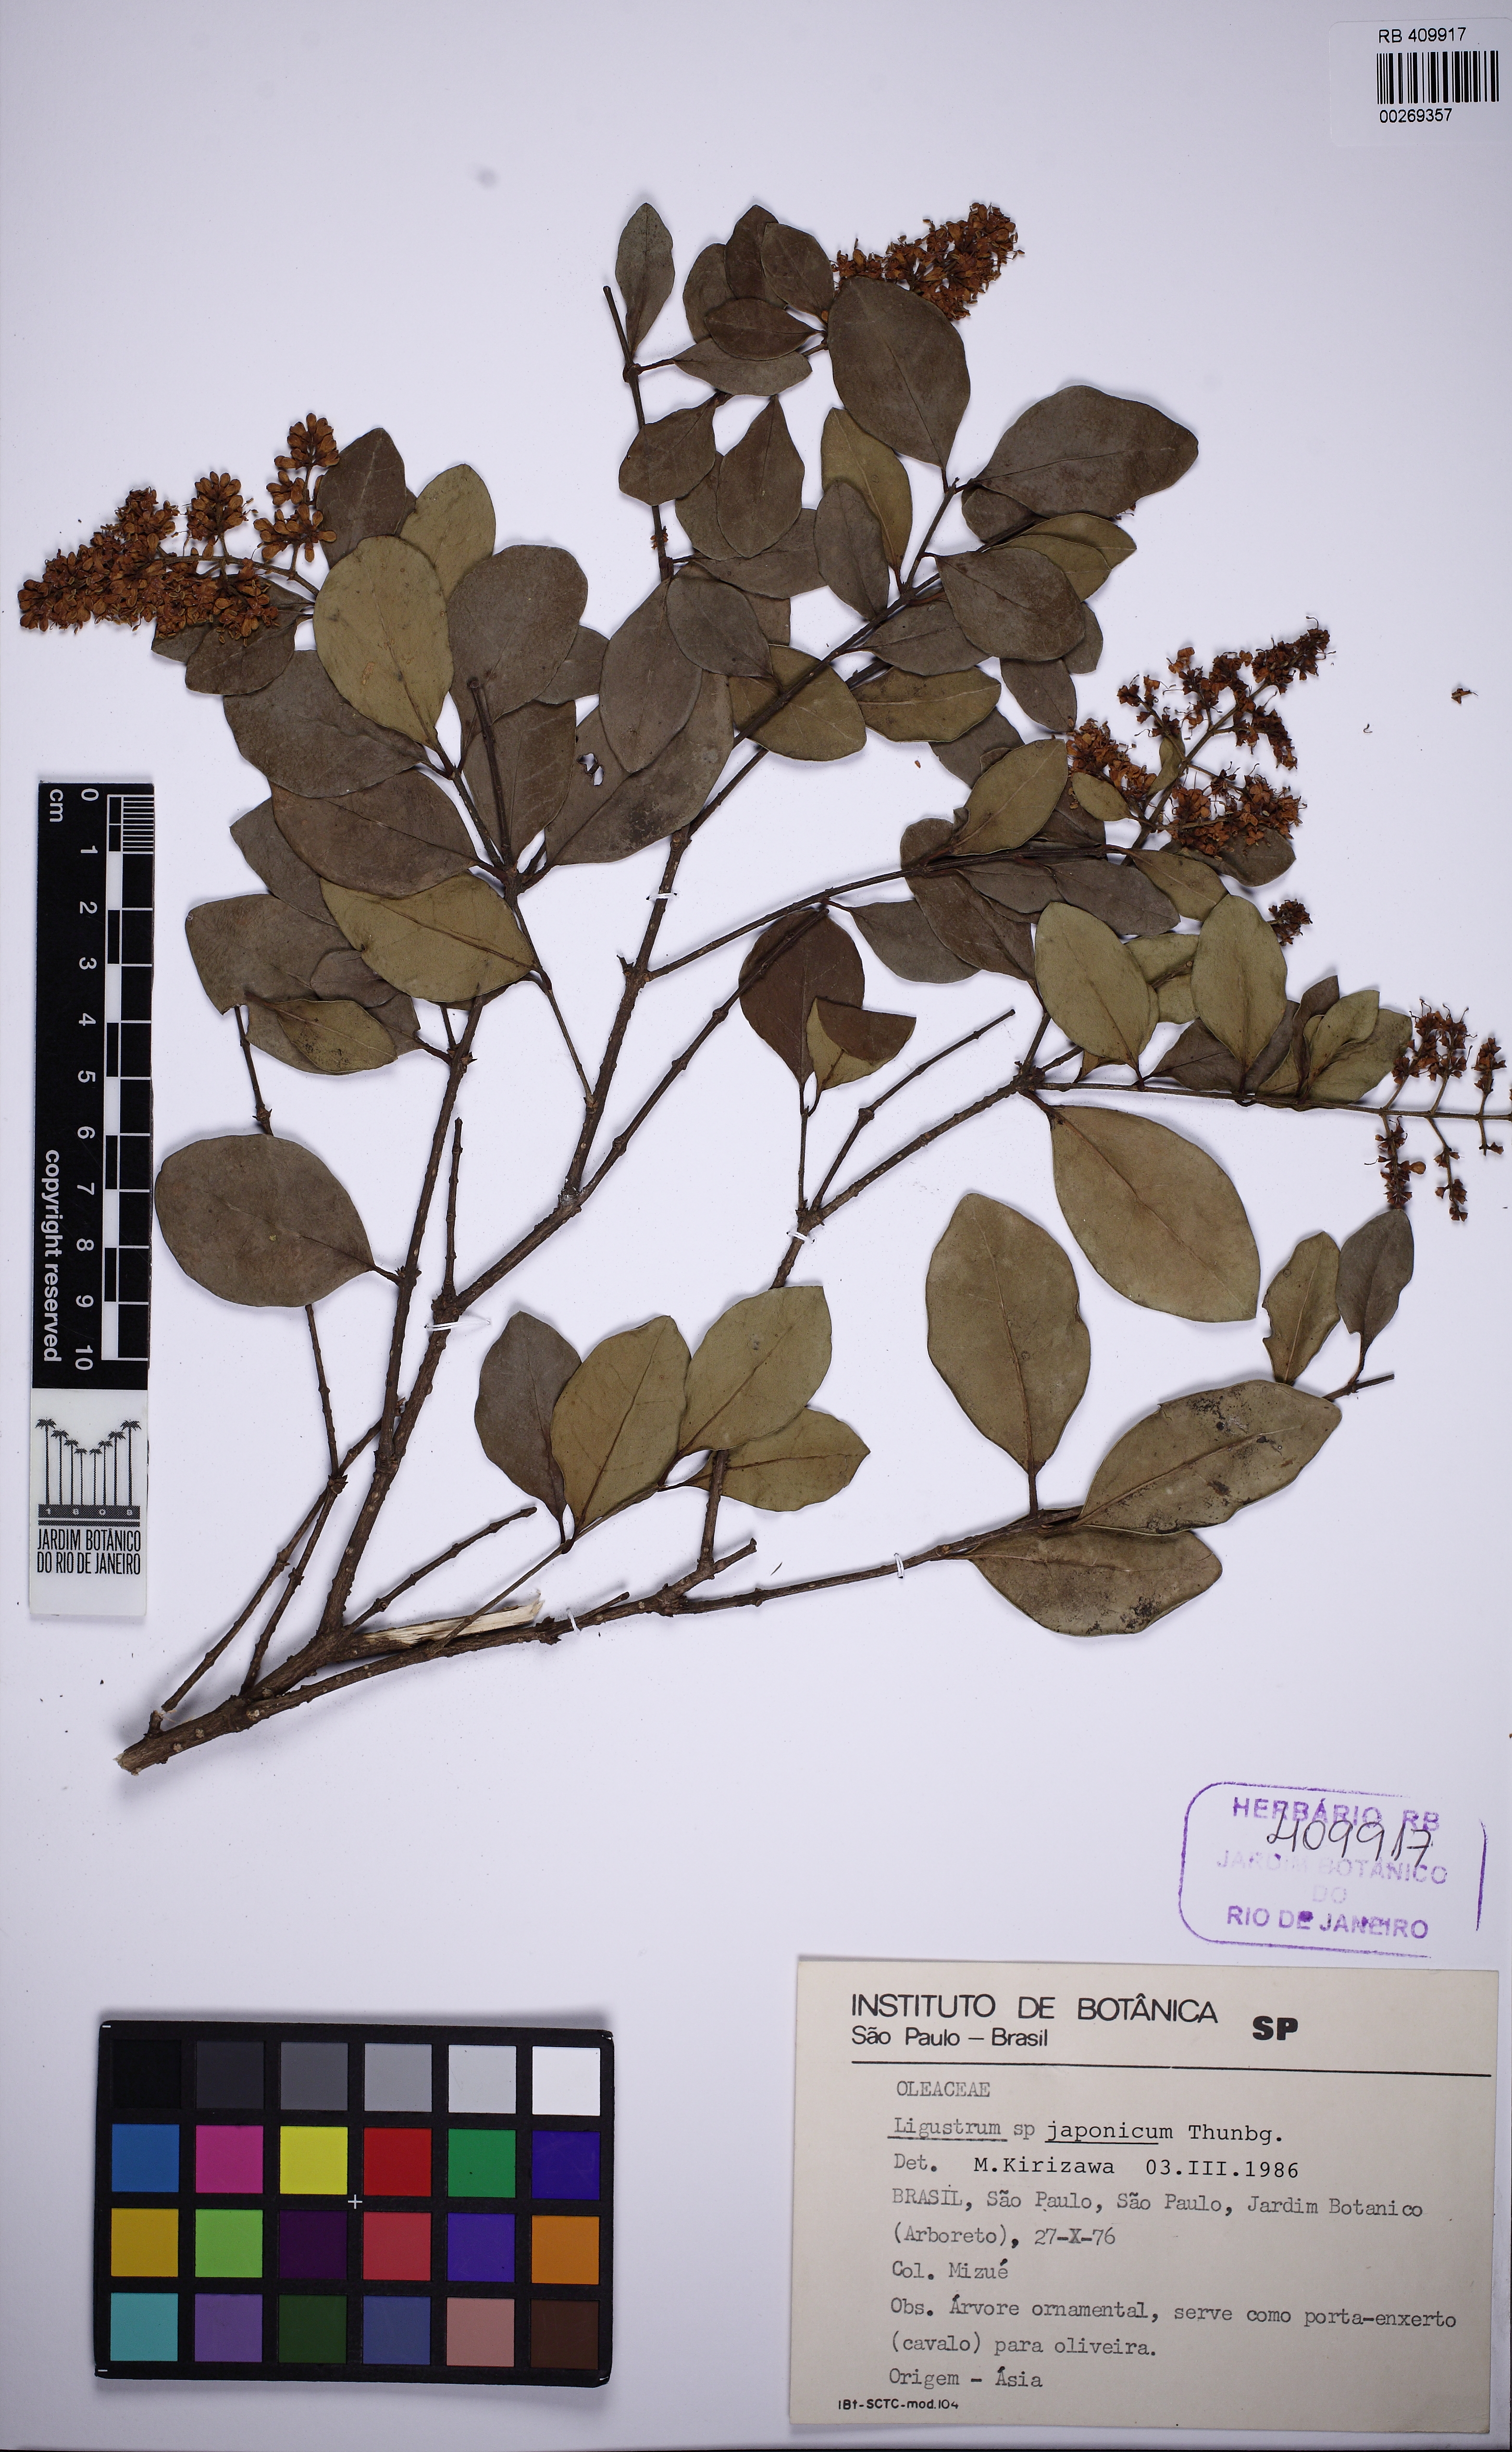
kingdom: Plantae
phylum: Tracheophyta
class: Magnoliopsida
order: Lamiales
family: Oleaceae
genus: Ligustrum
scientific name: Ligustrum japonicum
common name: Japanese privet
